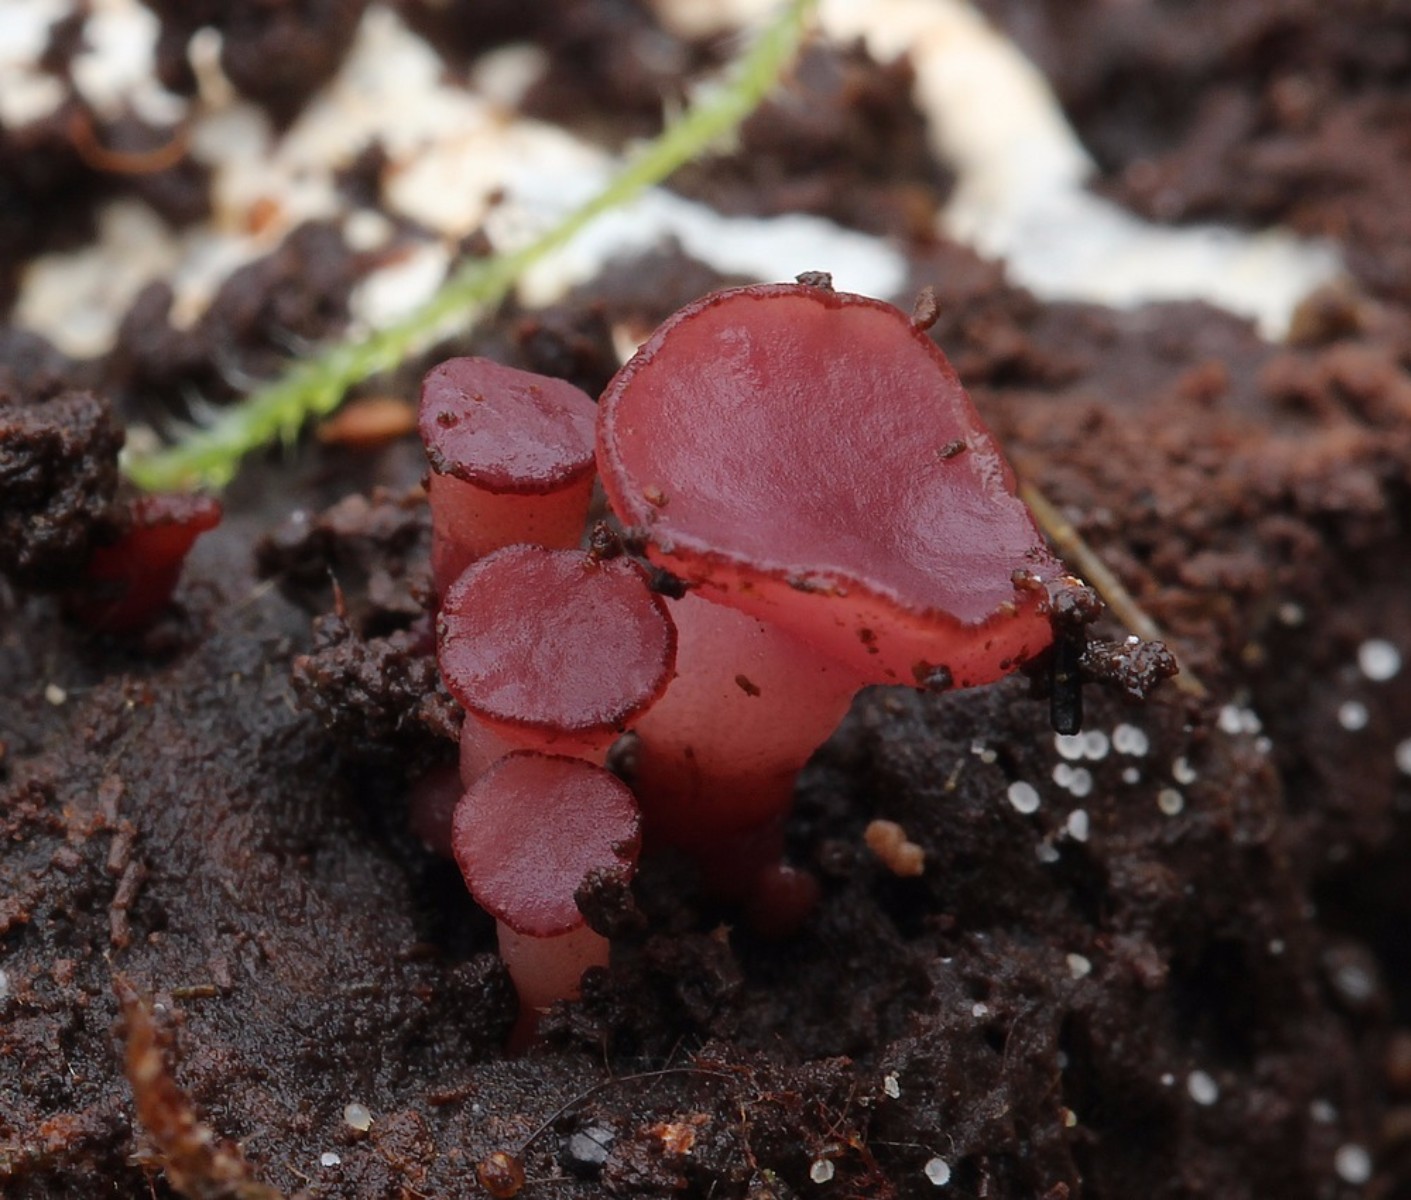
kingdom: Fungi
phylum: Ascomycota
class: Leotiomycetes
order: Helotiales
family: Gelatinodiscaceae
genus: Ascocoryne
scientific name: Ascocoryne cylichnium
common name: stor sejskive
